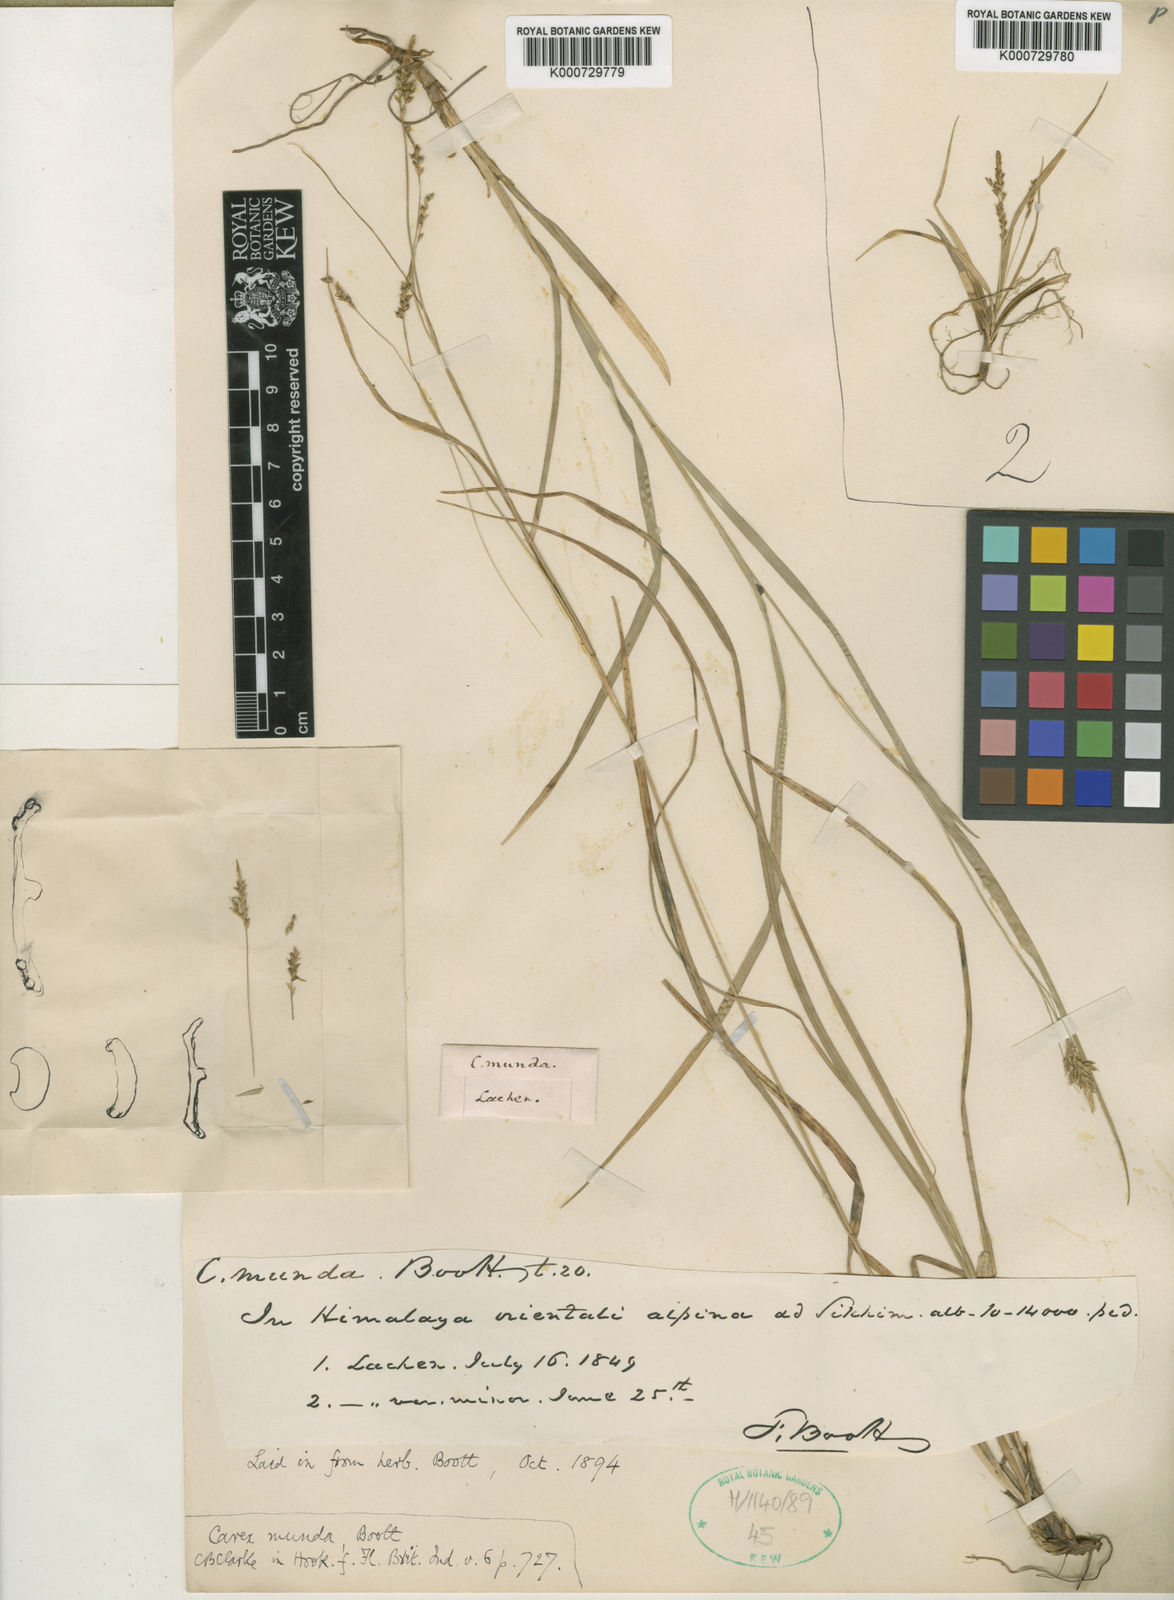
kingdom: Plantae
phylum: Tracheophyta
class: Liliopsida
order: Poales
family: Cyperaceae
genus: Carex
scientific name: Carex munda
